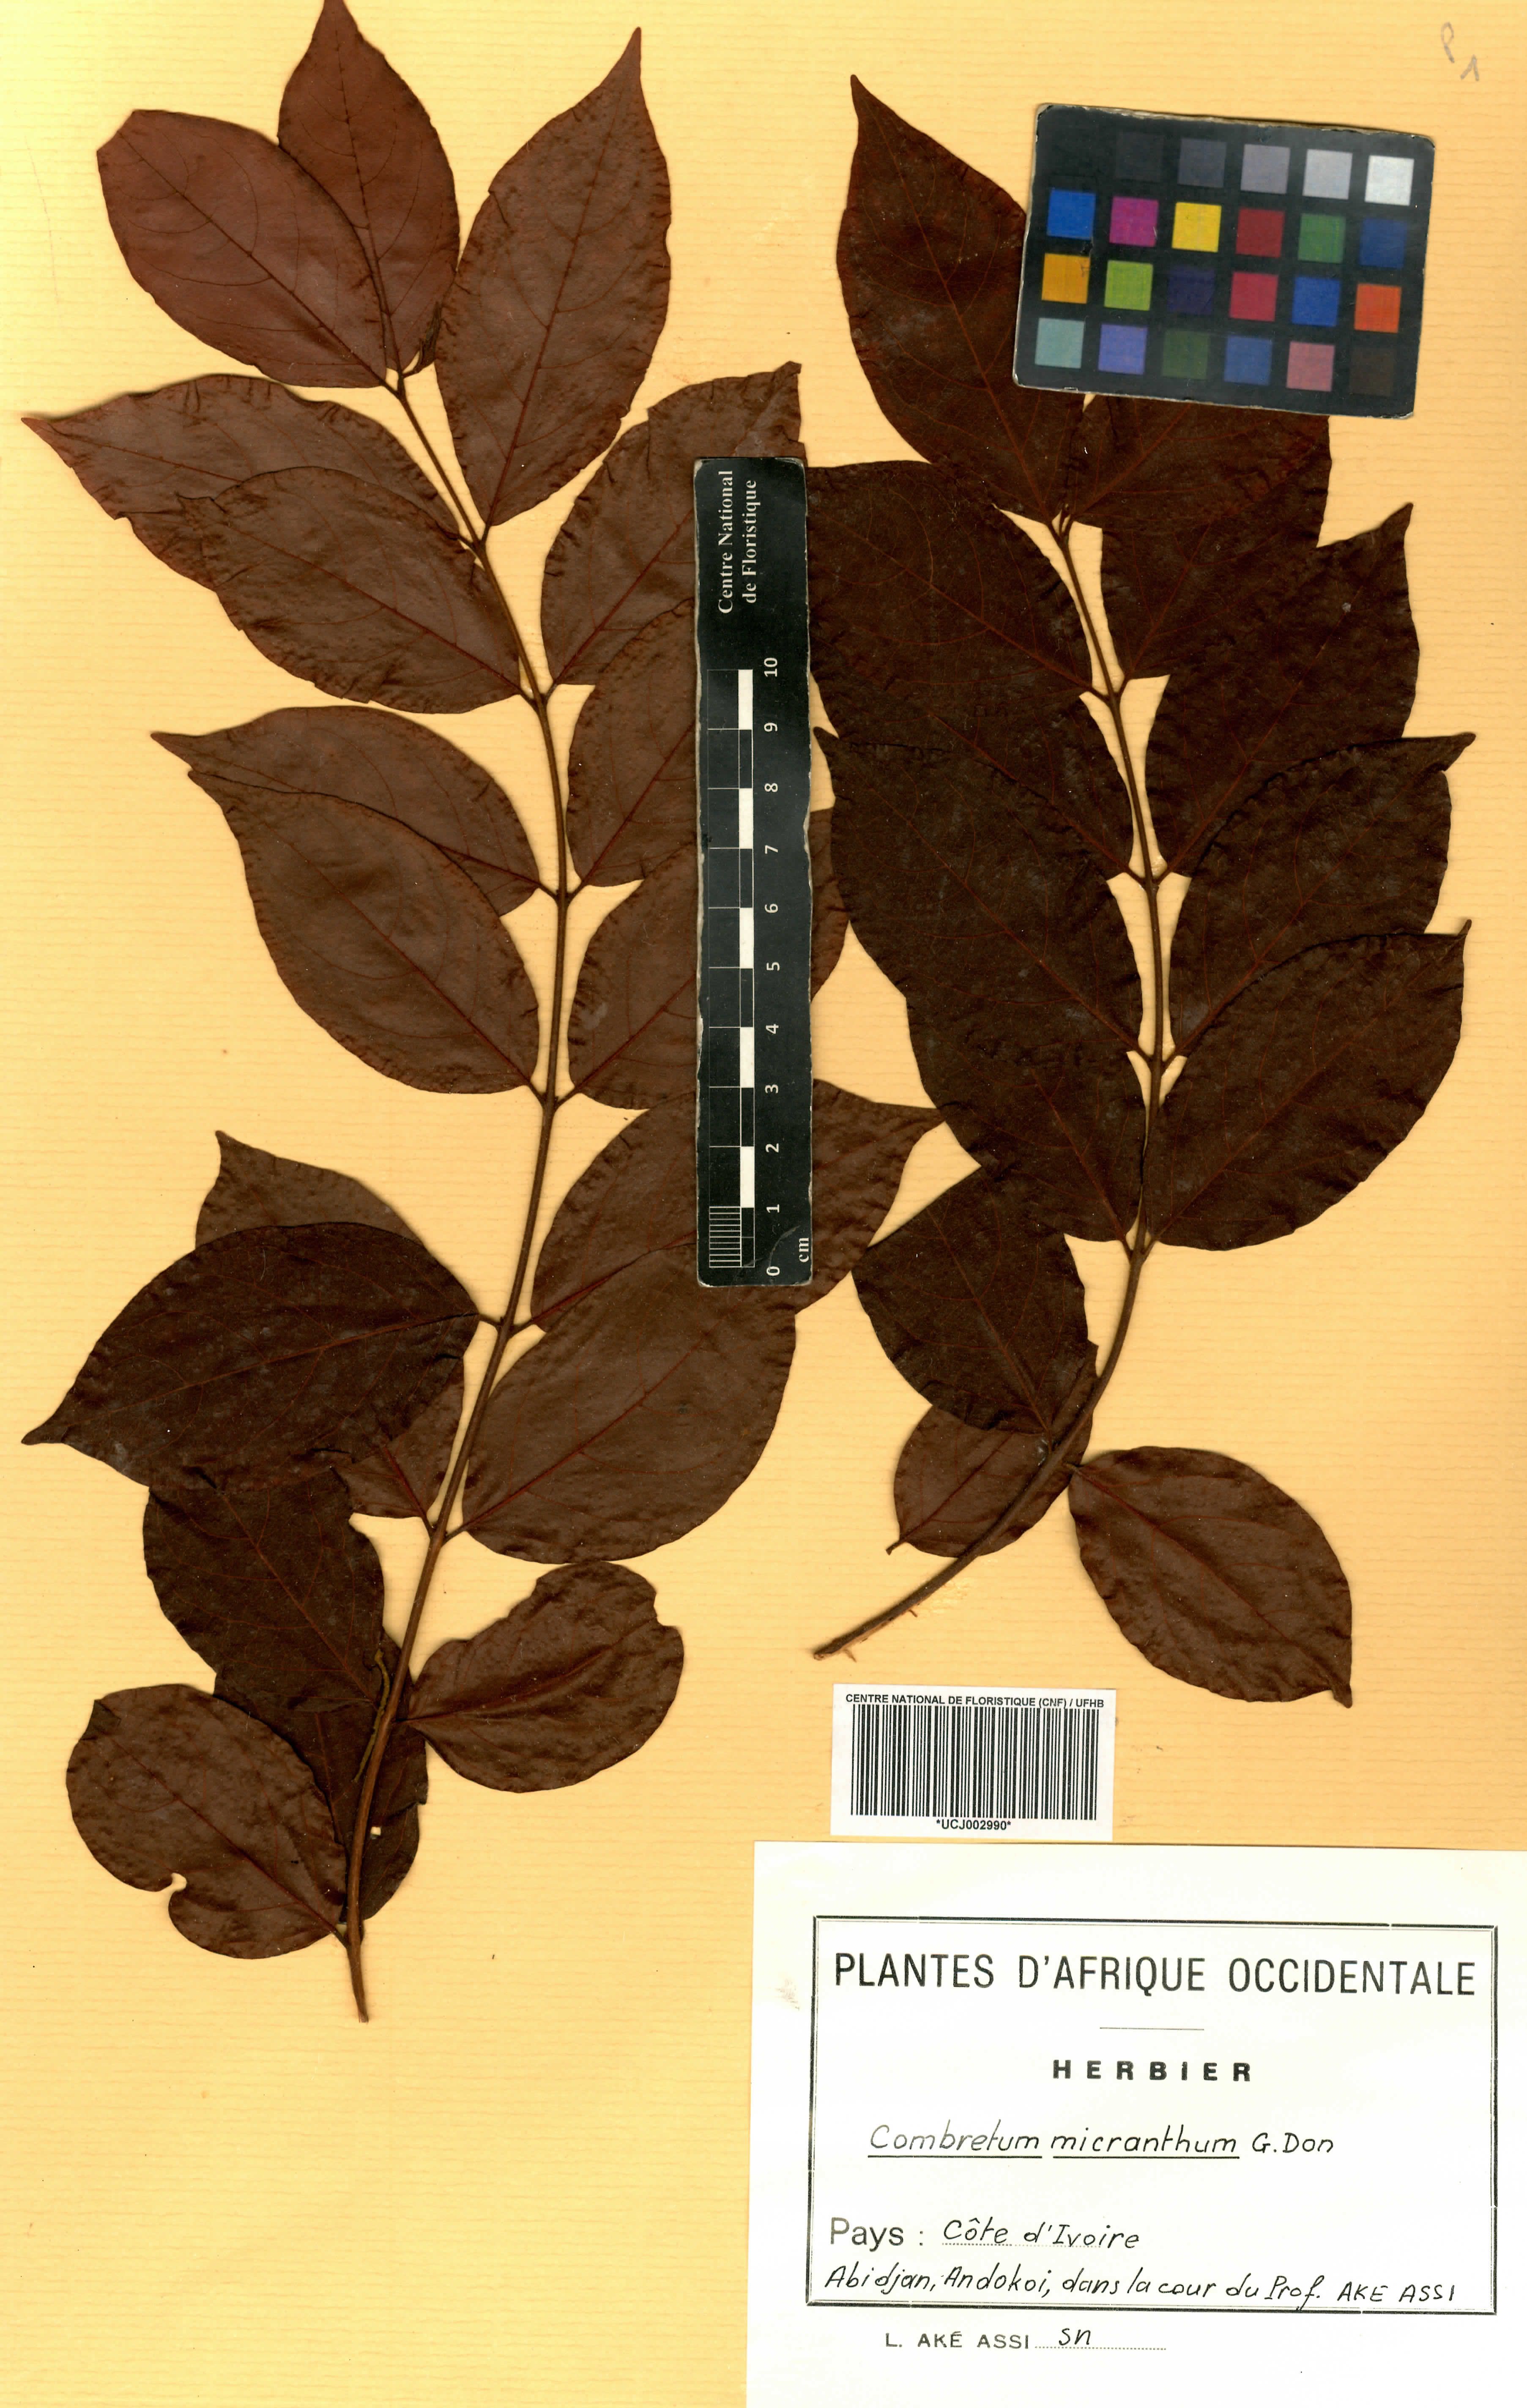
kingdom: Plantae
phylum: Tracheophyta
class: Magnoliopsida
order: Myrtales
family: Combretaceae
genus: Combretum
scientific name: Combretum micranthum
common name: Opium-antidote
